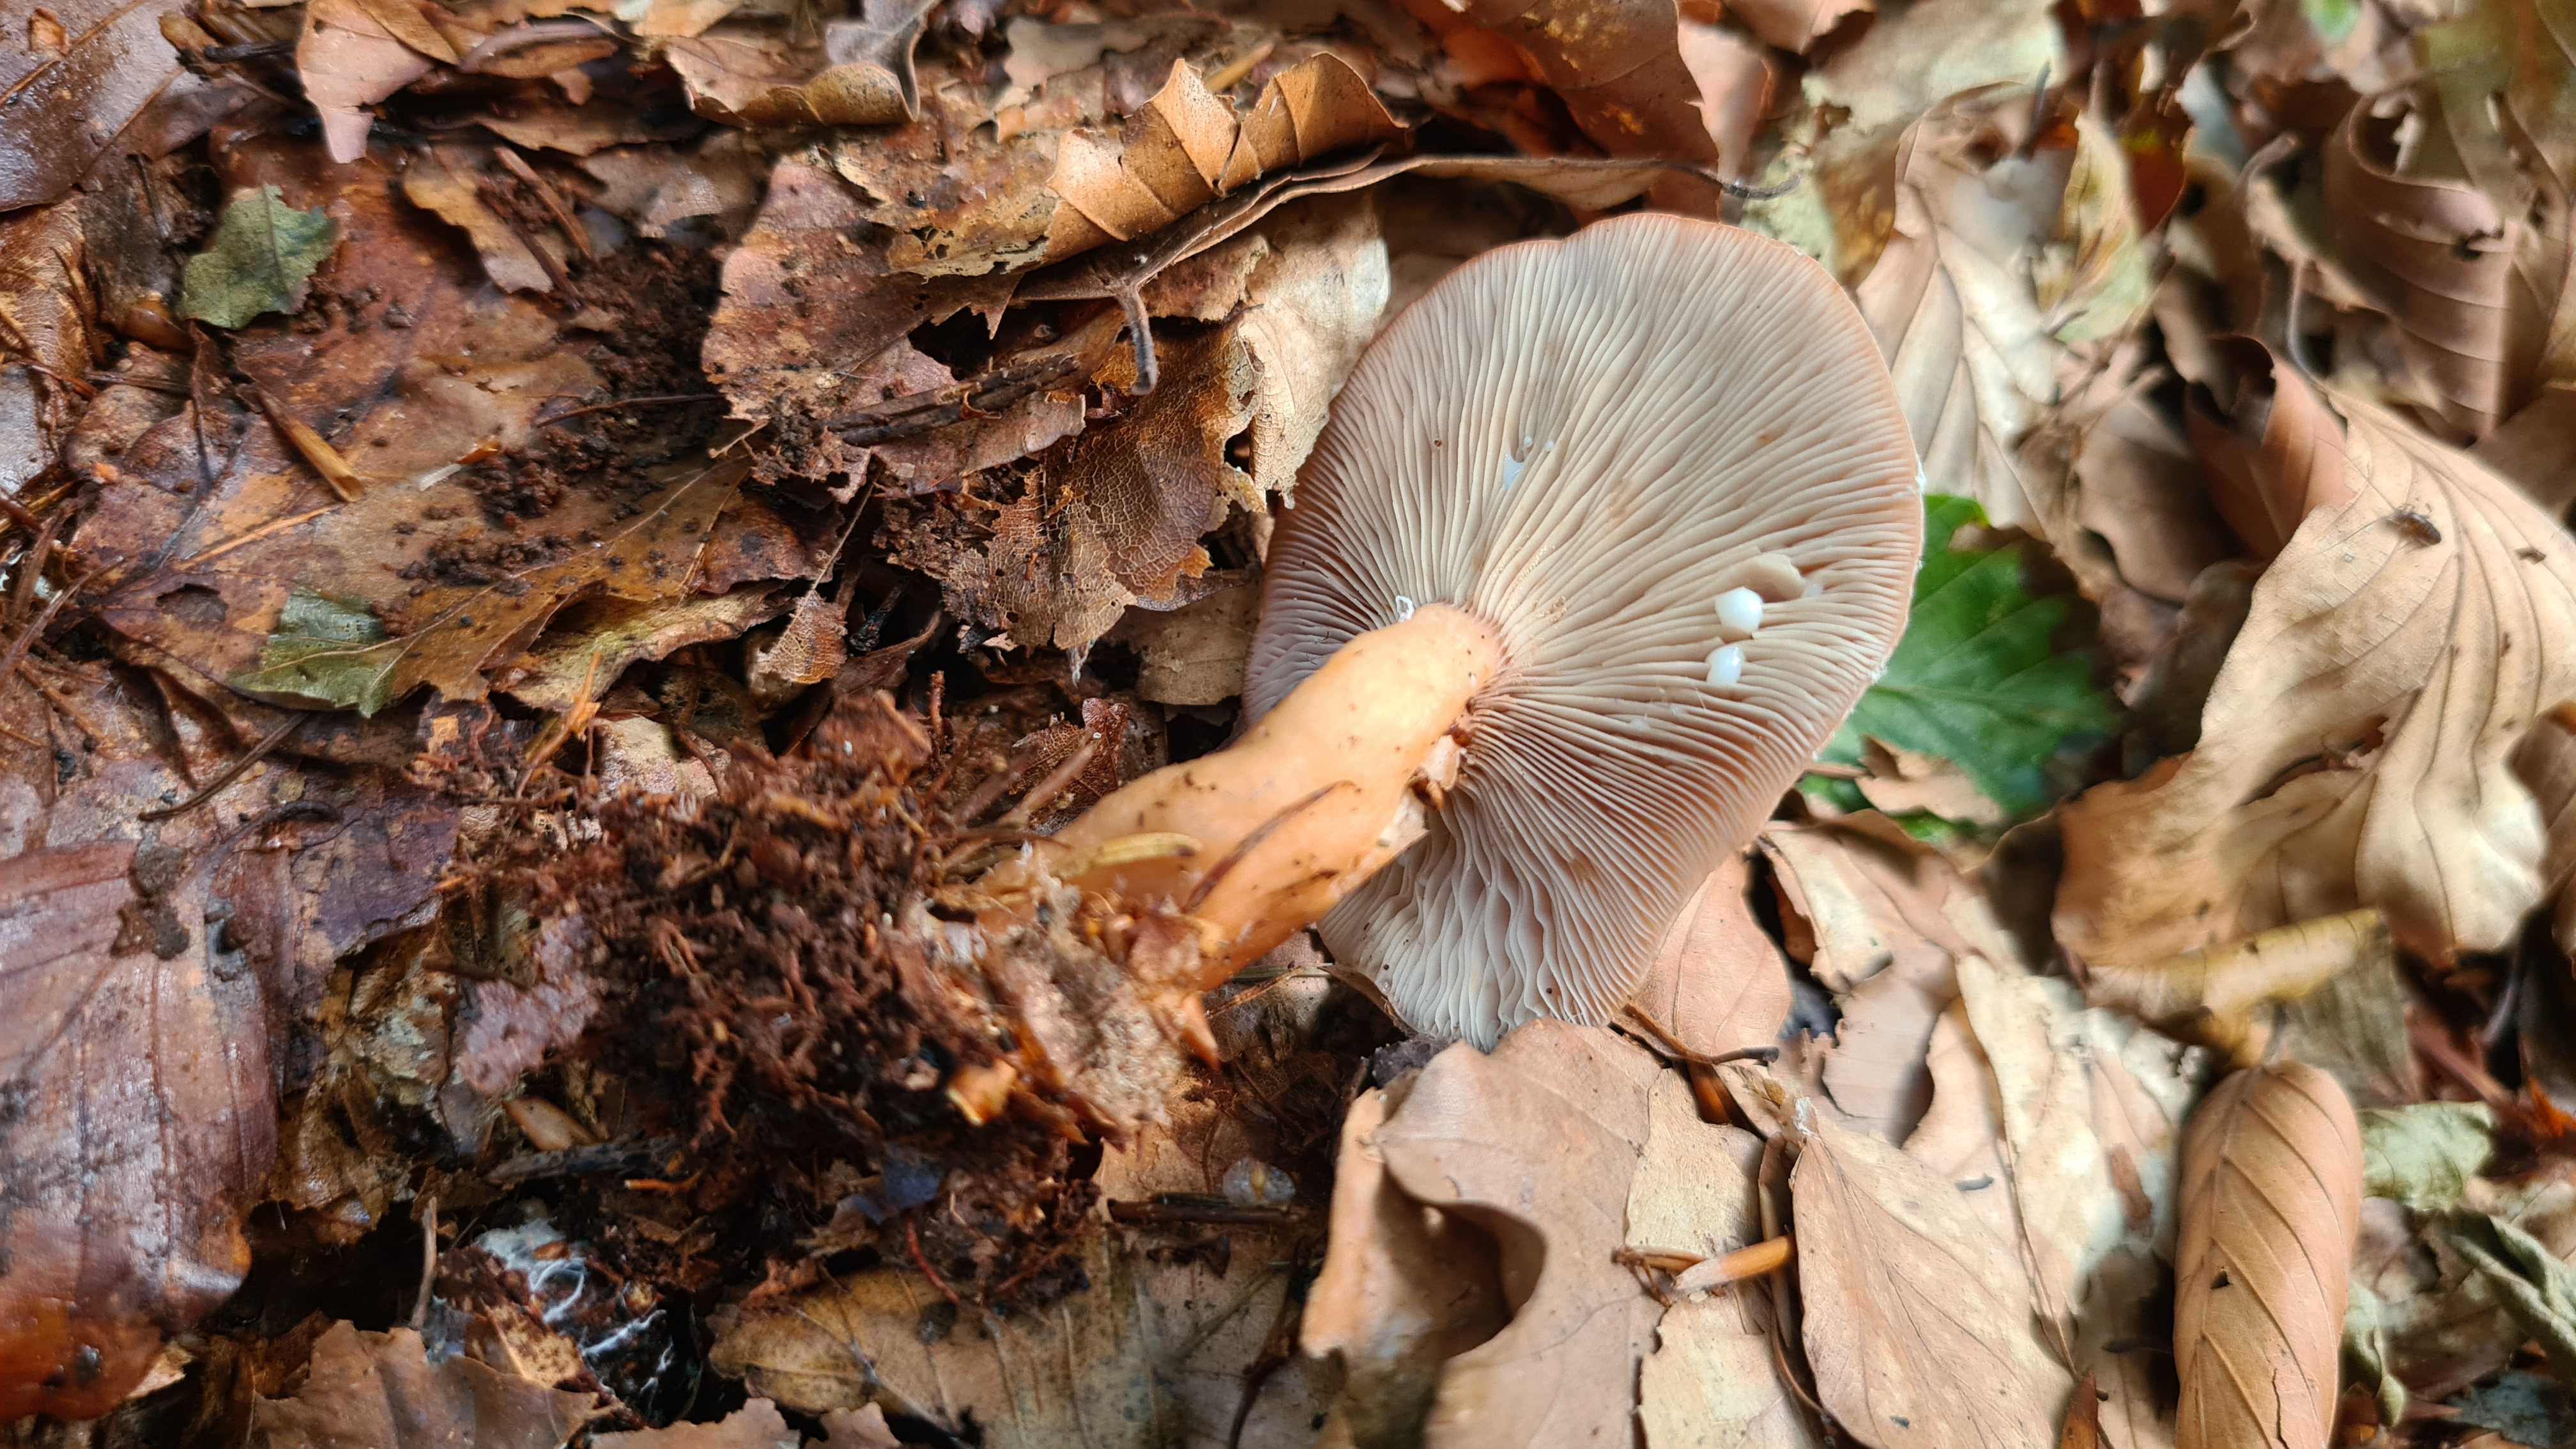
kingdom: Fungi
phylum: Basidiomycota
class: Agaricomycetes
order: Russulales
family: Russulaceae
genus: Lactarius
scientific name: Lactarius subdulcis
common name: sødlig mælkehat
